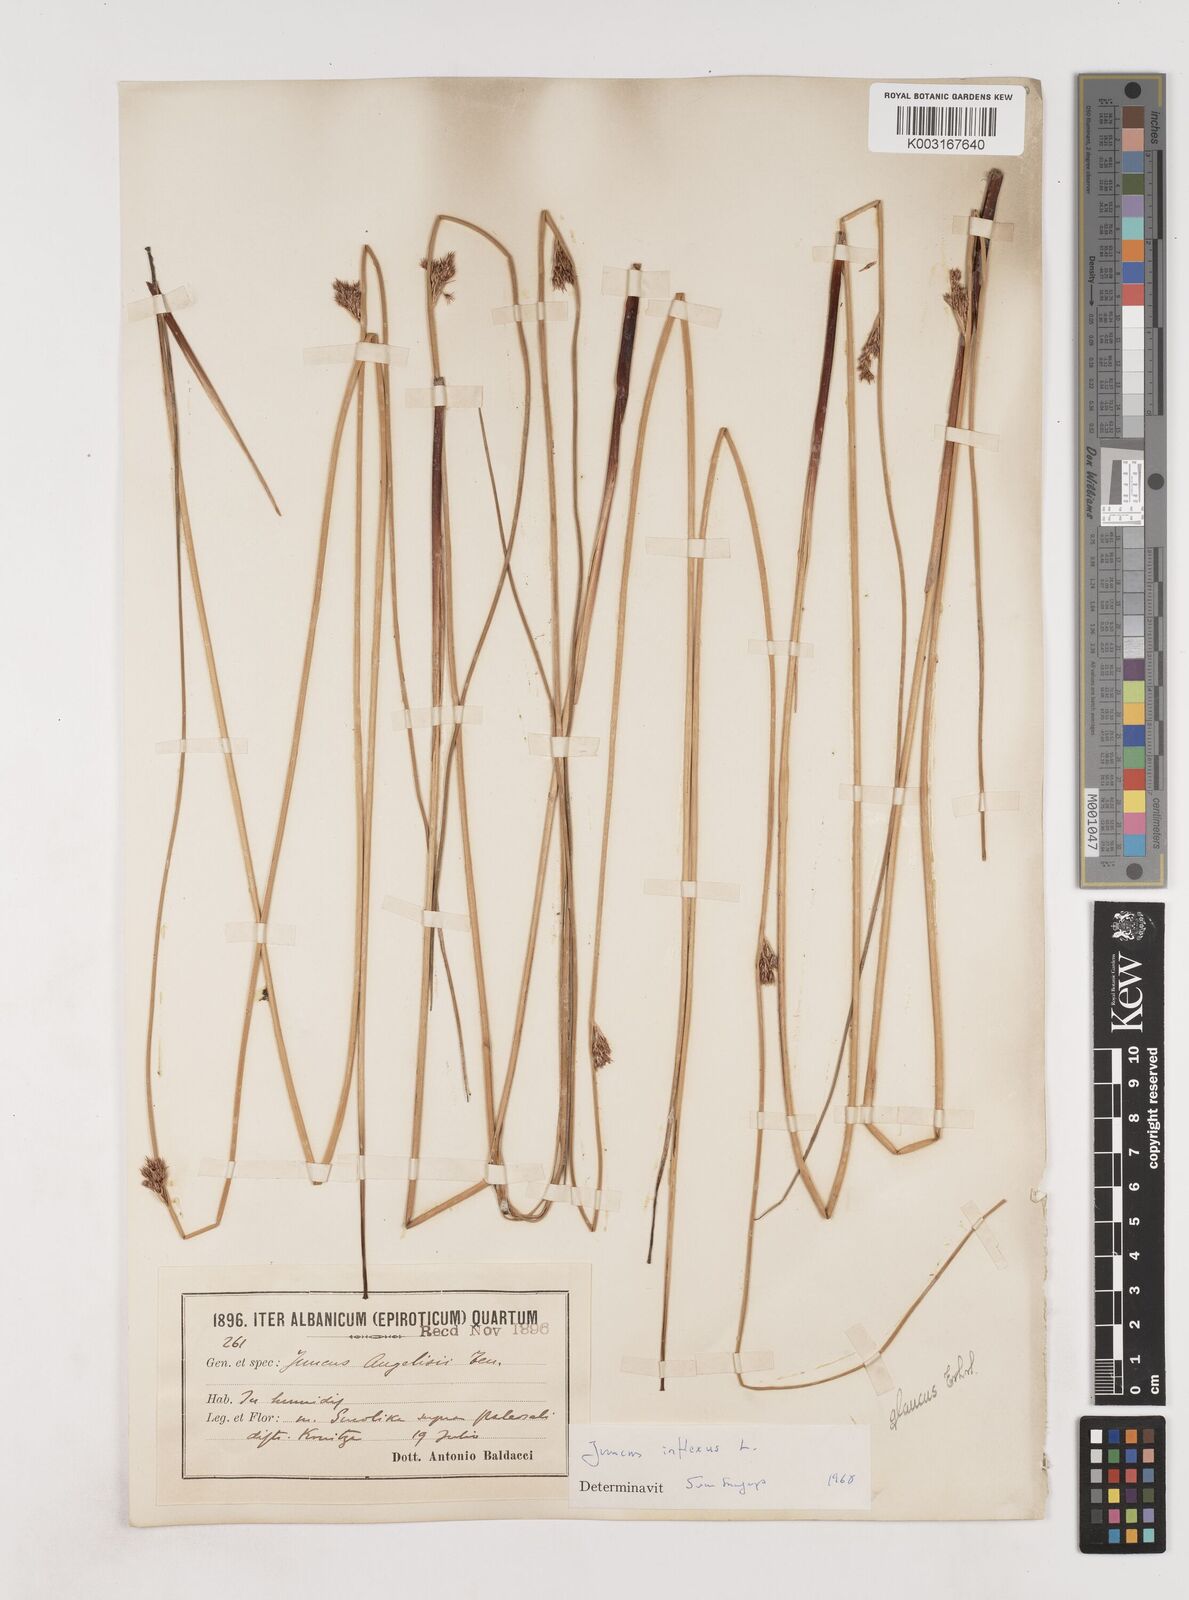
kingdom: Plantae
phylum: Tracheophyta
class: Liliopsida
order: Poales
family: Juncaceae
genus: Juncus
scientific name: Juncus inflexus
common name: Hard rush
